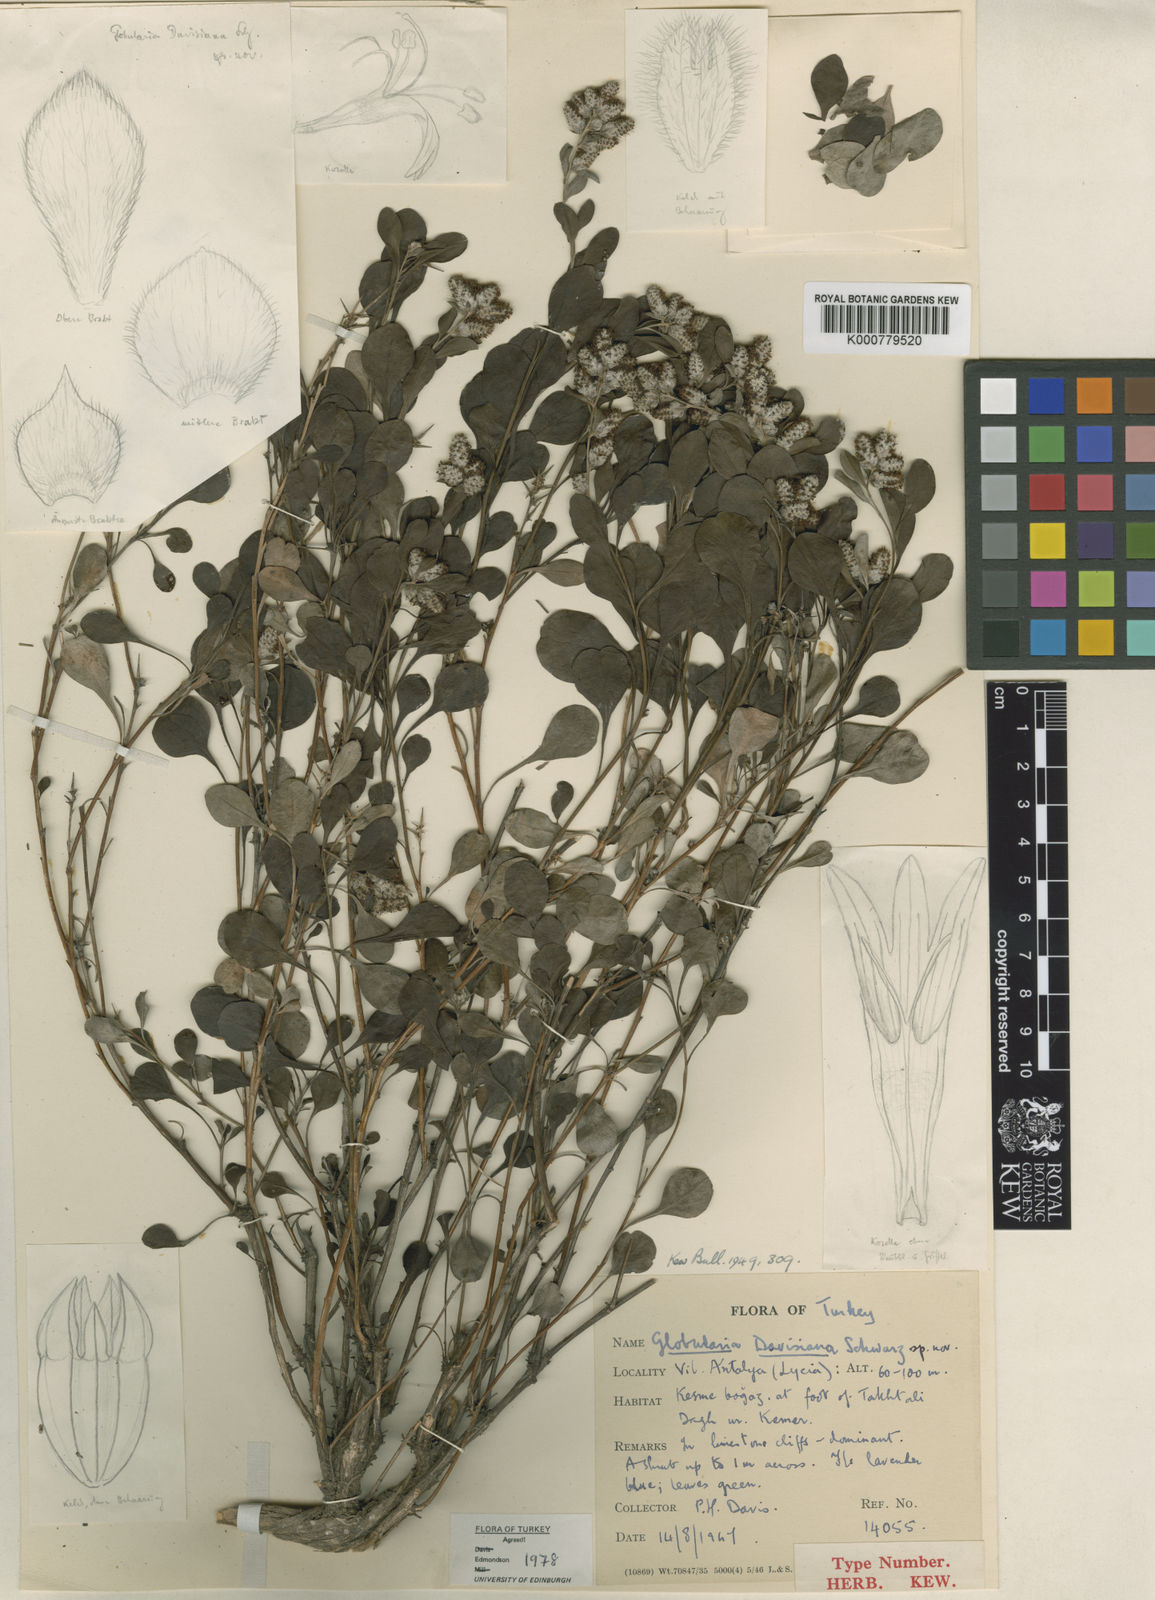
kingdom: Plantae
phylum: Tracheophyta
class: Magnoliopsida
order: Lamiales
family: Plantaginaceae
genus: Globularia
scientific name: Globularia davisiana
